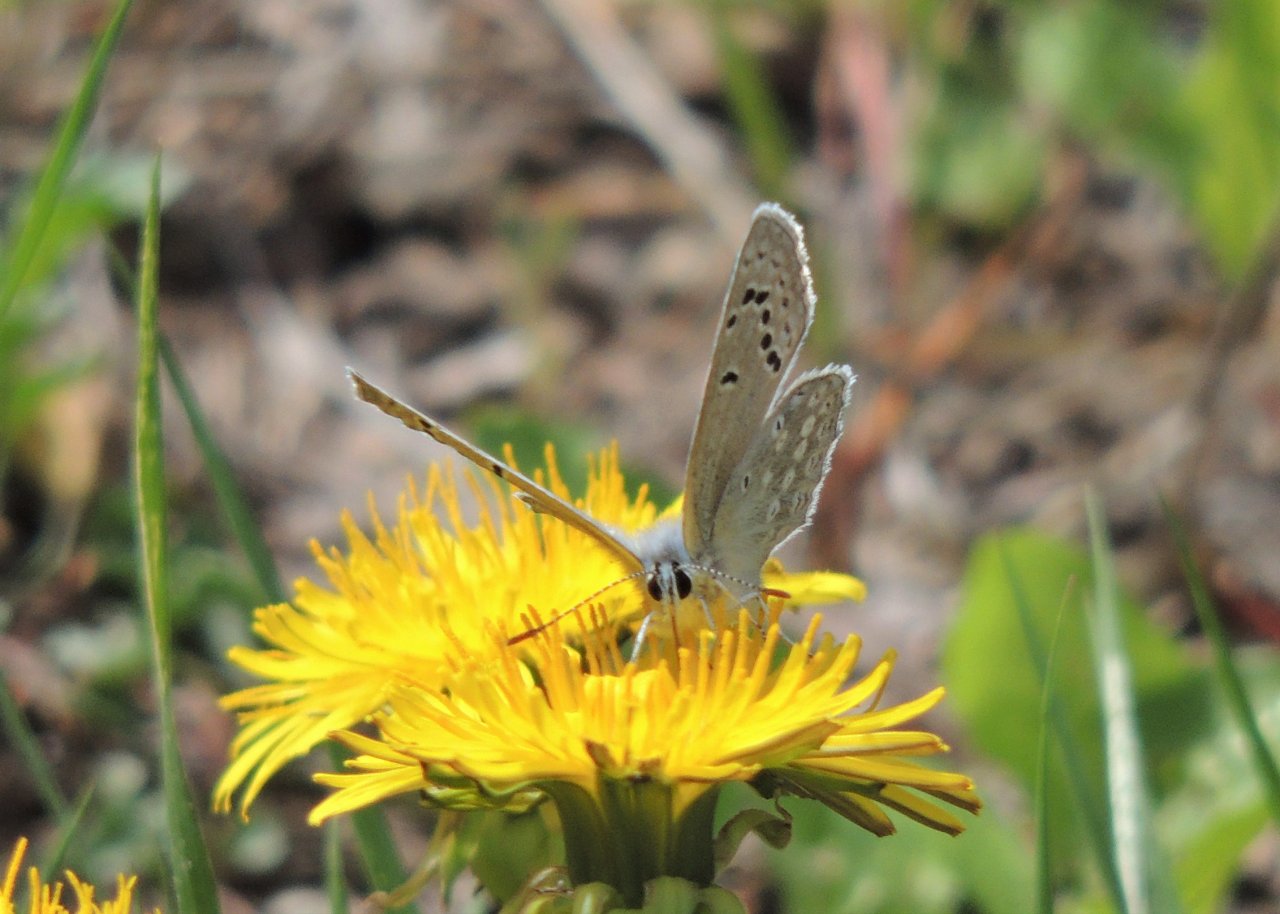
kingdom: Animalia
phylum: Arthropoda
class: Insecta
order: Lepidoptera
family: Lycaenidae
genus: Icaricia
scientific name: Icaricia icarioides
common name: Boisduval's Blue
